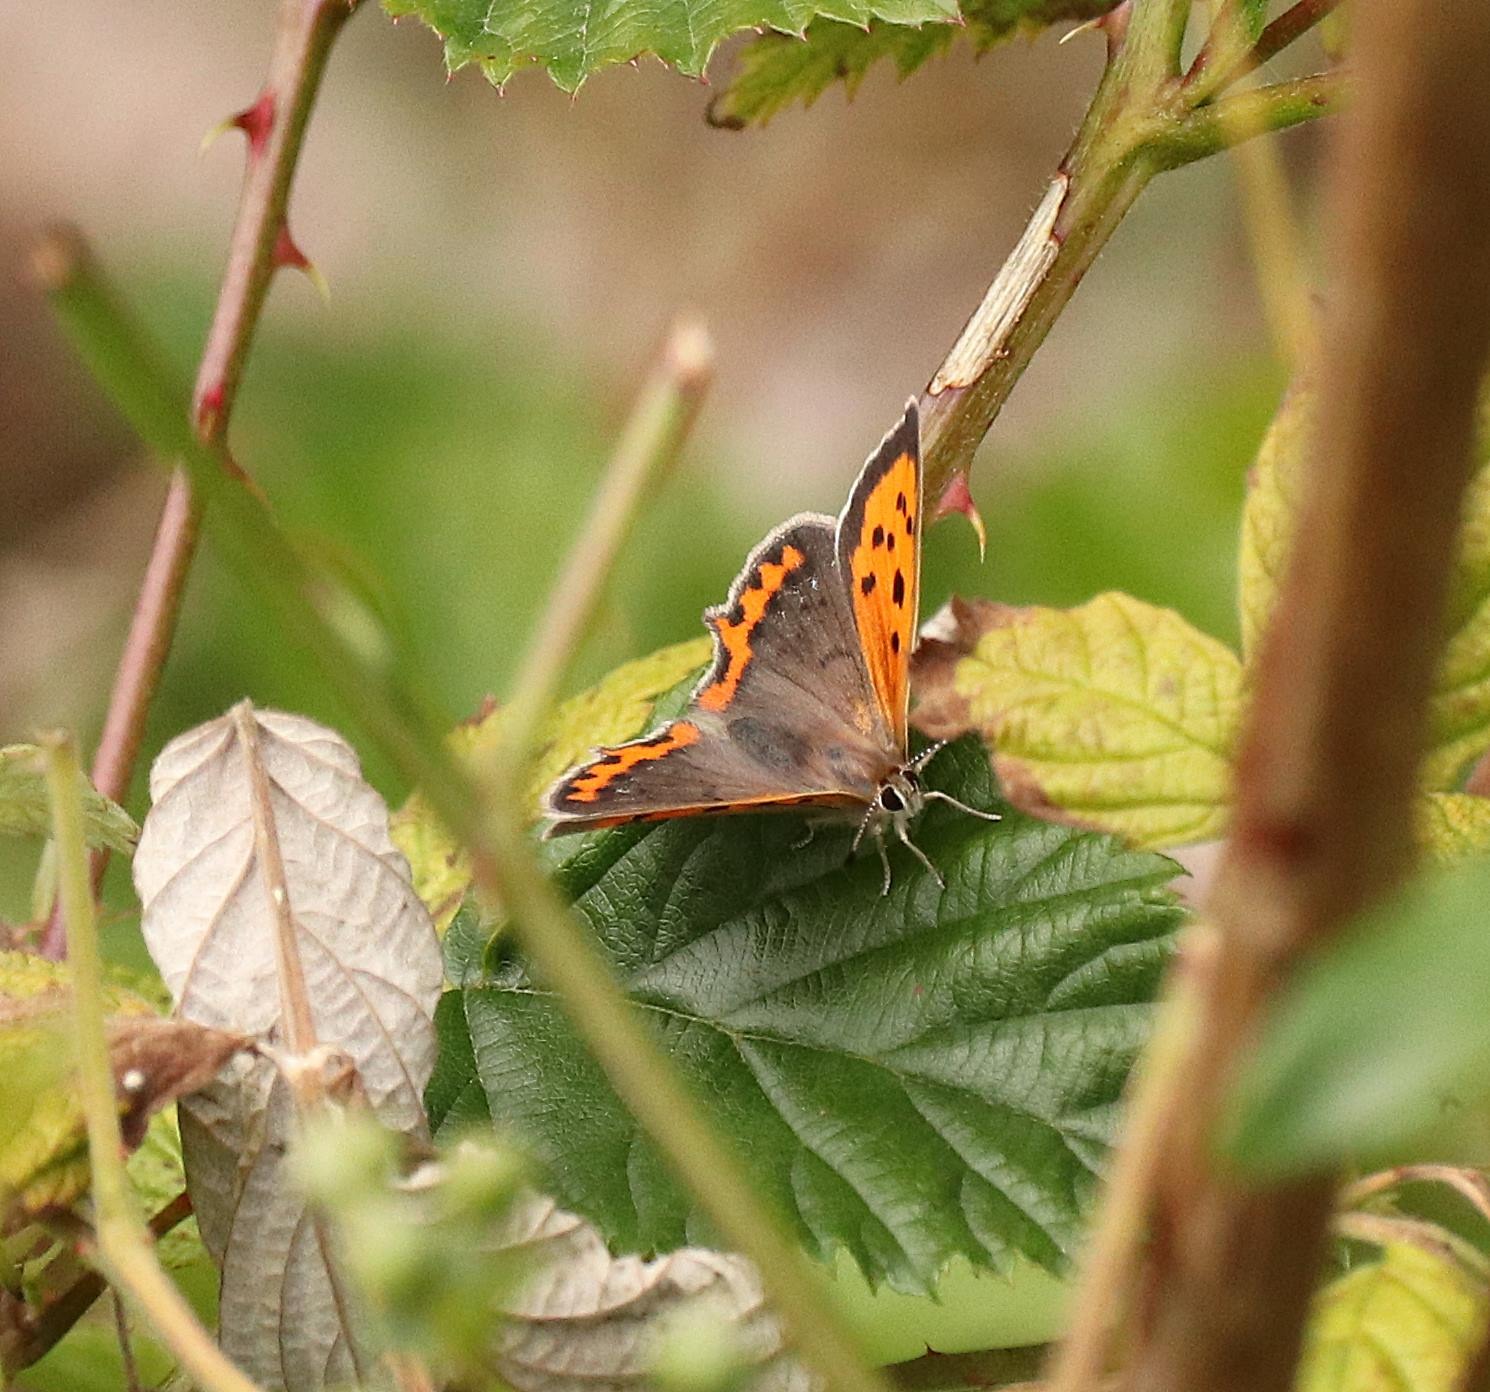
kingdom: Animalia
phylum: Arthropoda
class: Insecta
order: Lepidoptera
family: Lycaenidae
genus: Lycaena
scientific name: Lycaena phlaeas
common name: Lille ildfugl
